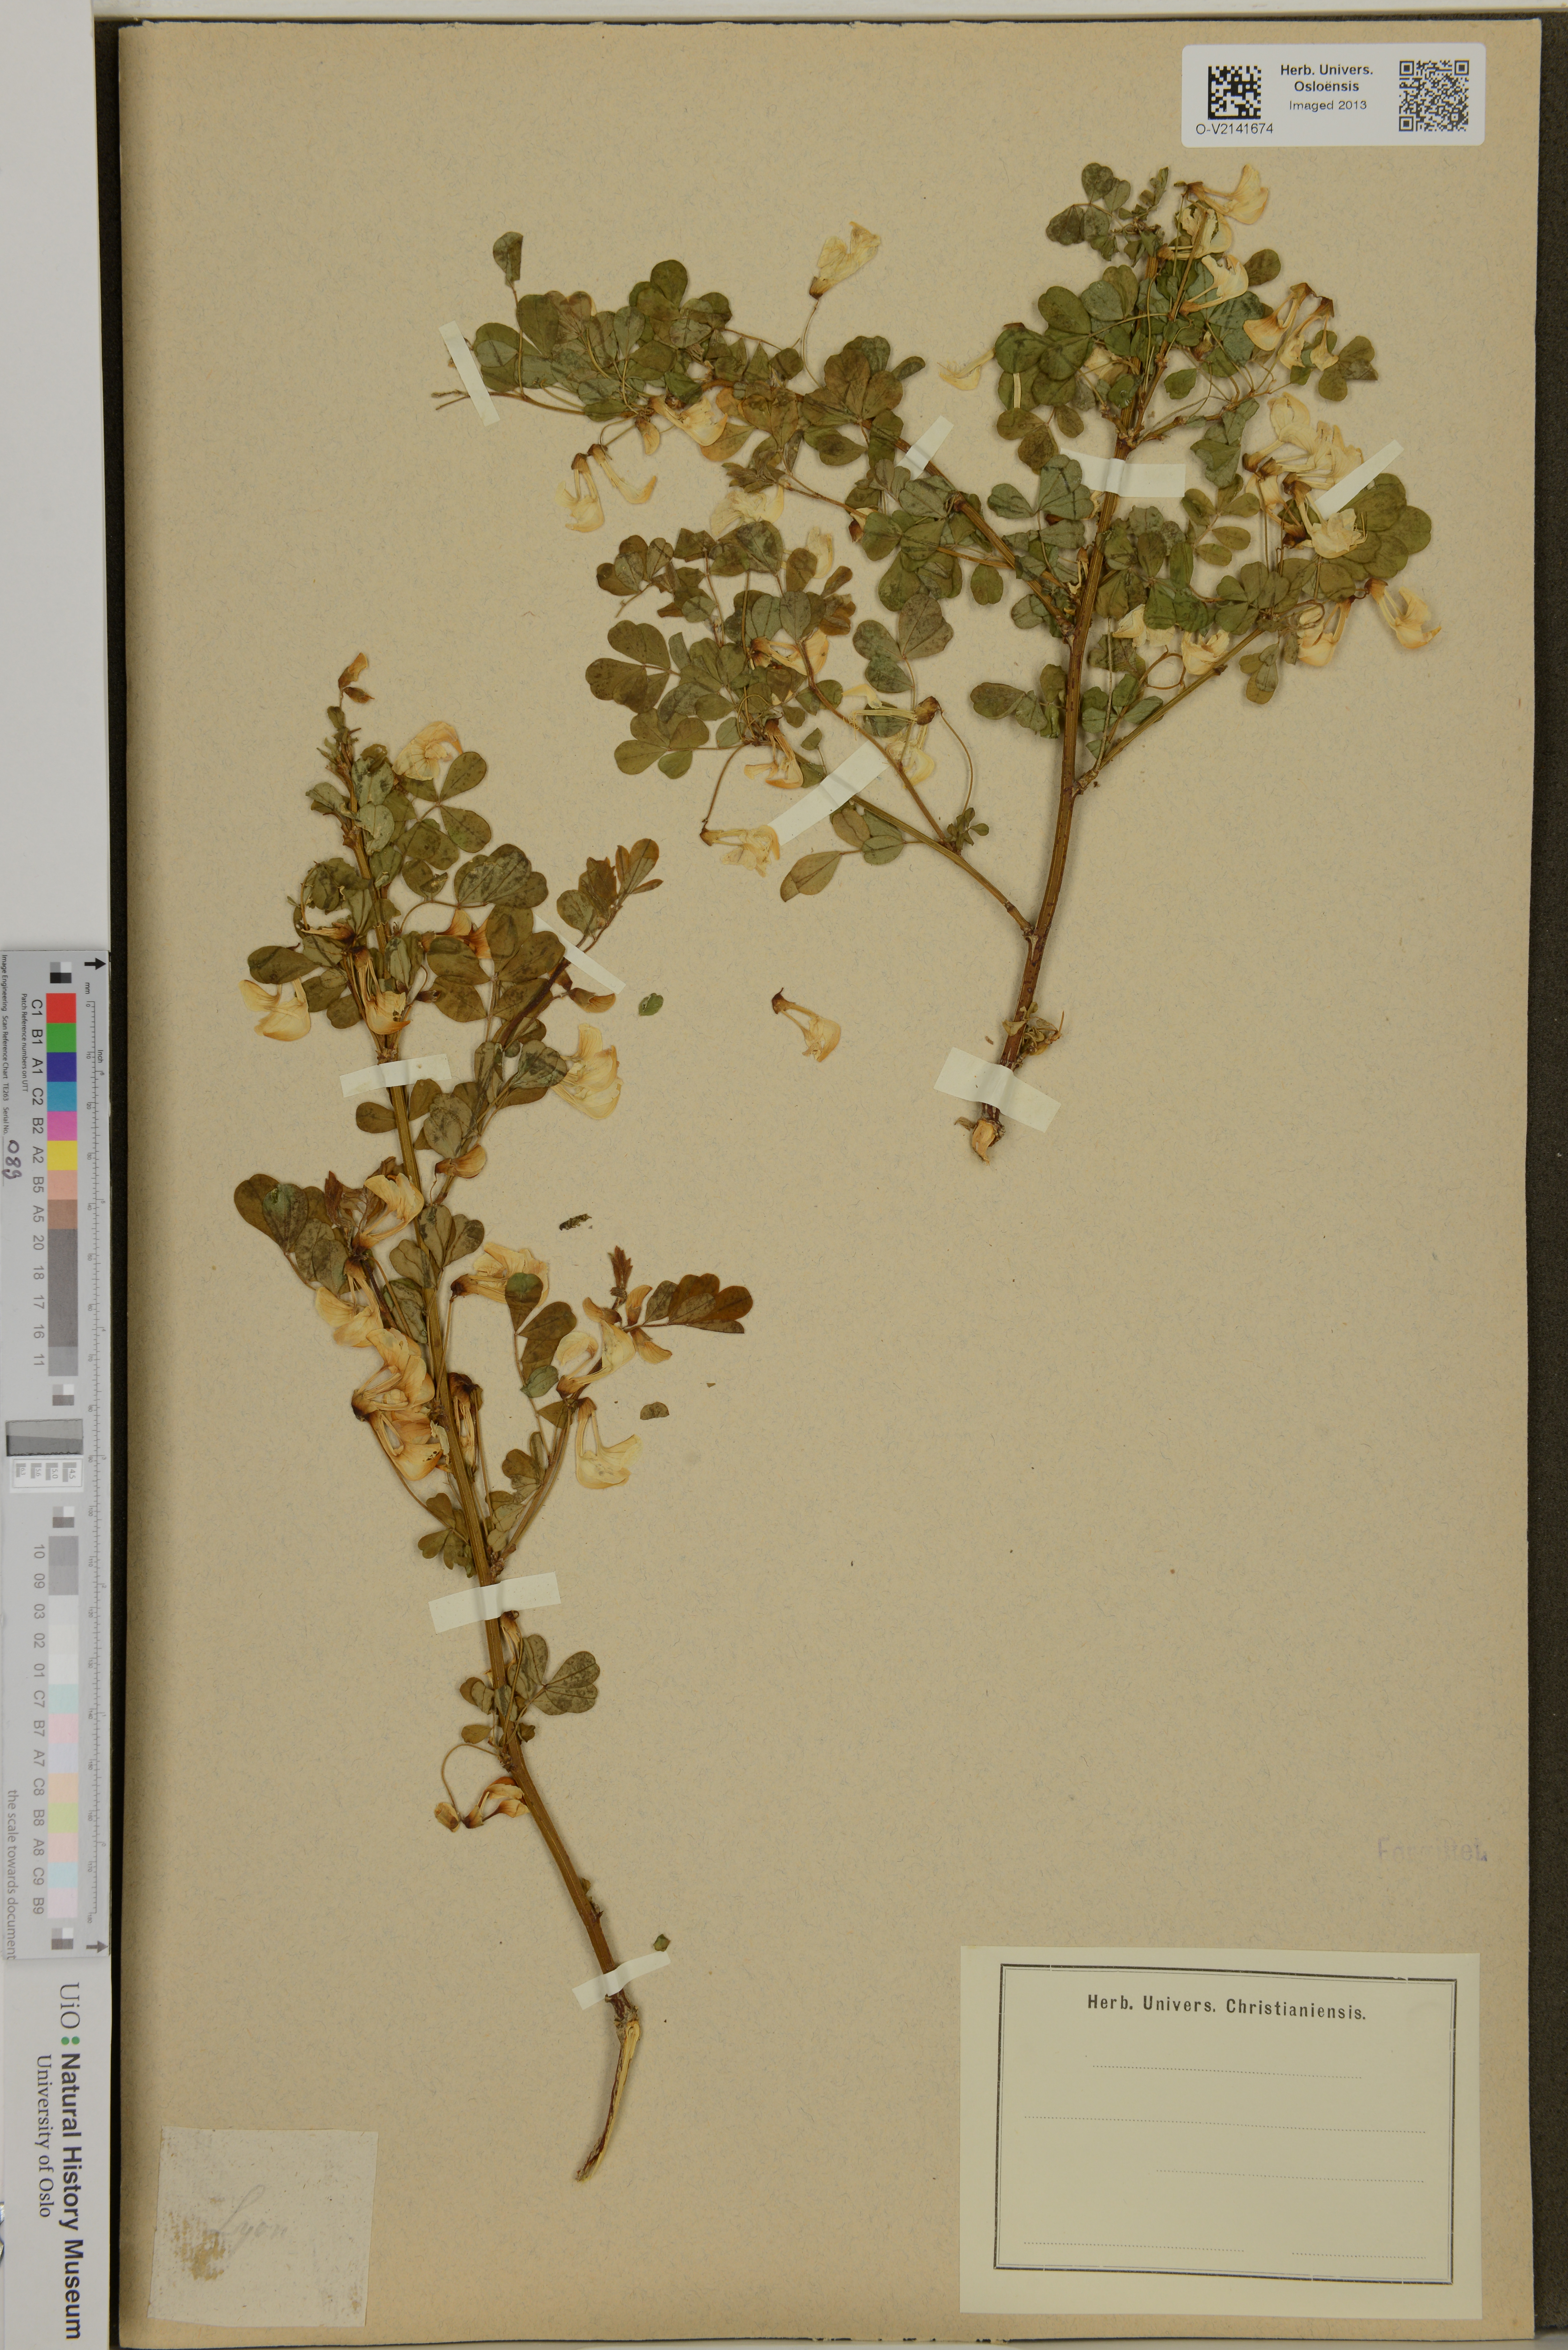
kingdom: Plantae
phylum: Tracheophyta
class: Magnoliopsida
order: Fabales
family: Fabaceae
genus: Coronilla
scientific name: Coronilla
